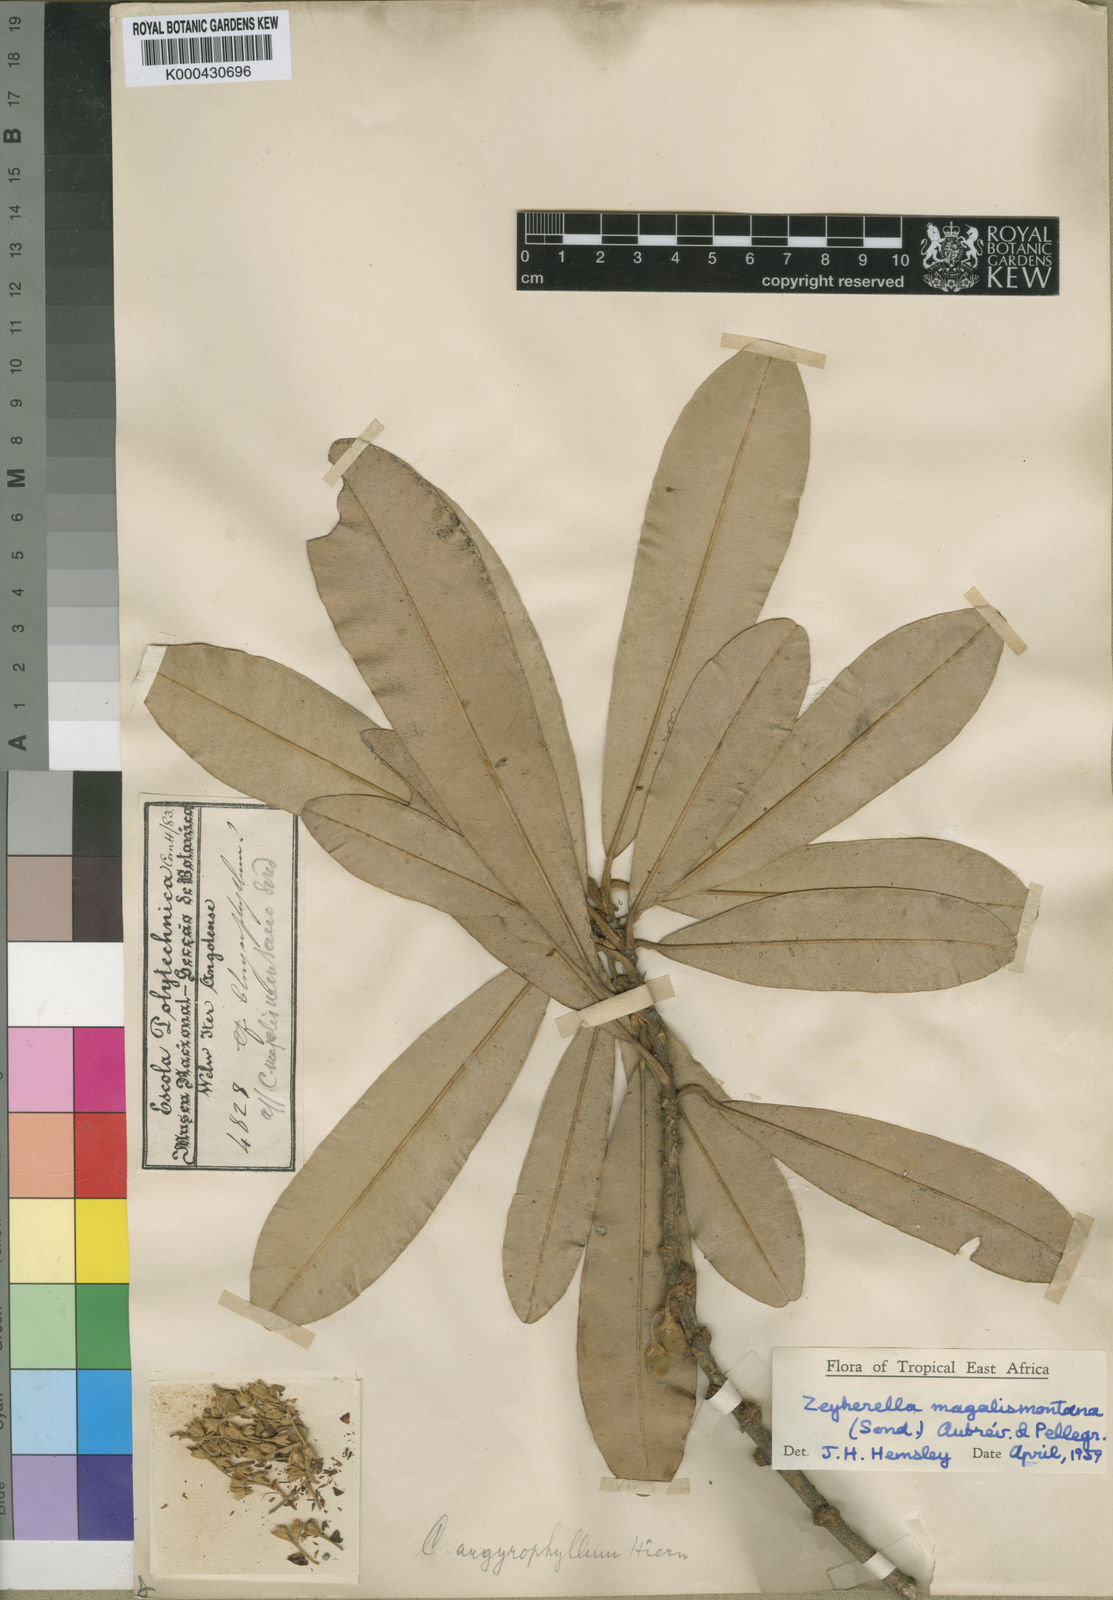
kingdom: Plantae
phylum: Tracheophyta
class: Magnoliopsida
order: Ericales
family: Sapotaceae
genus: Englerophytum
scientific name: Englerophytum magalismontanum
